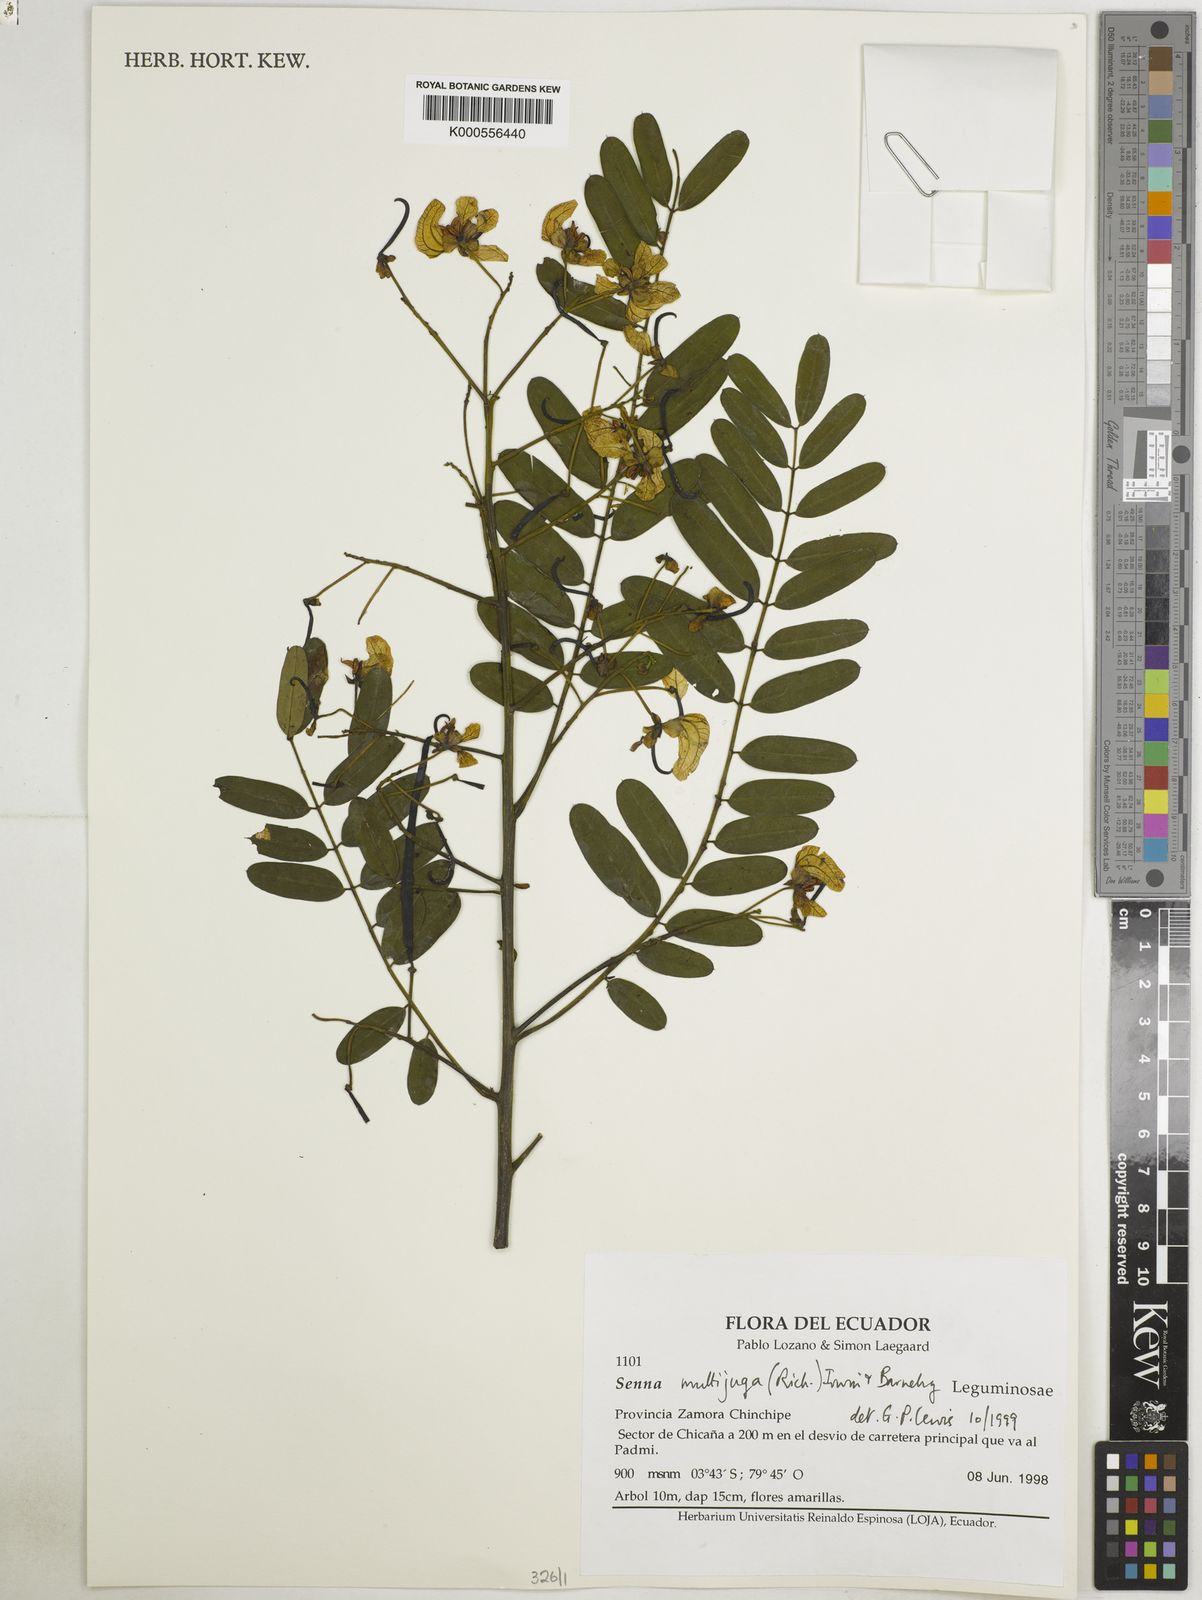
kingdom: Plantae
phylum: Tracheophyta
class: Magnoliopsida
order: Fabales
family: Fabaceae
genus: Senna
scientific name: Senna multijuga
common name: False sicklepod
